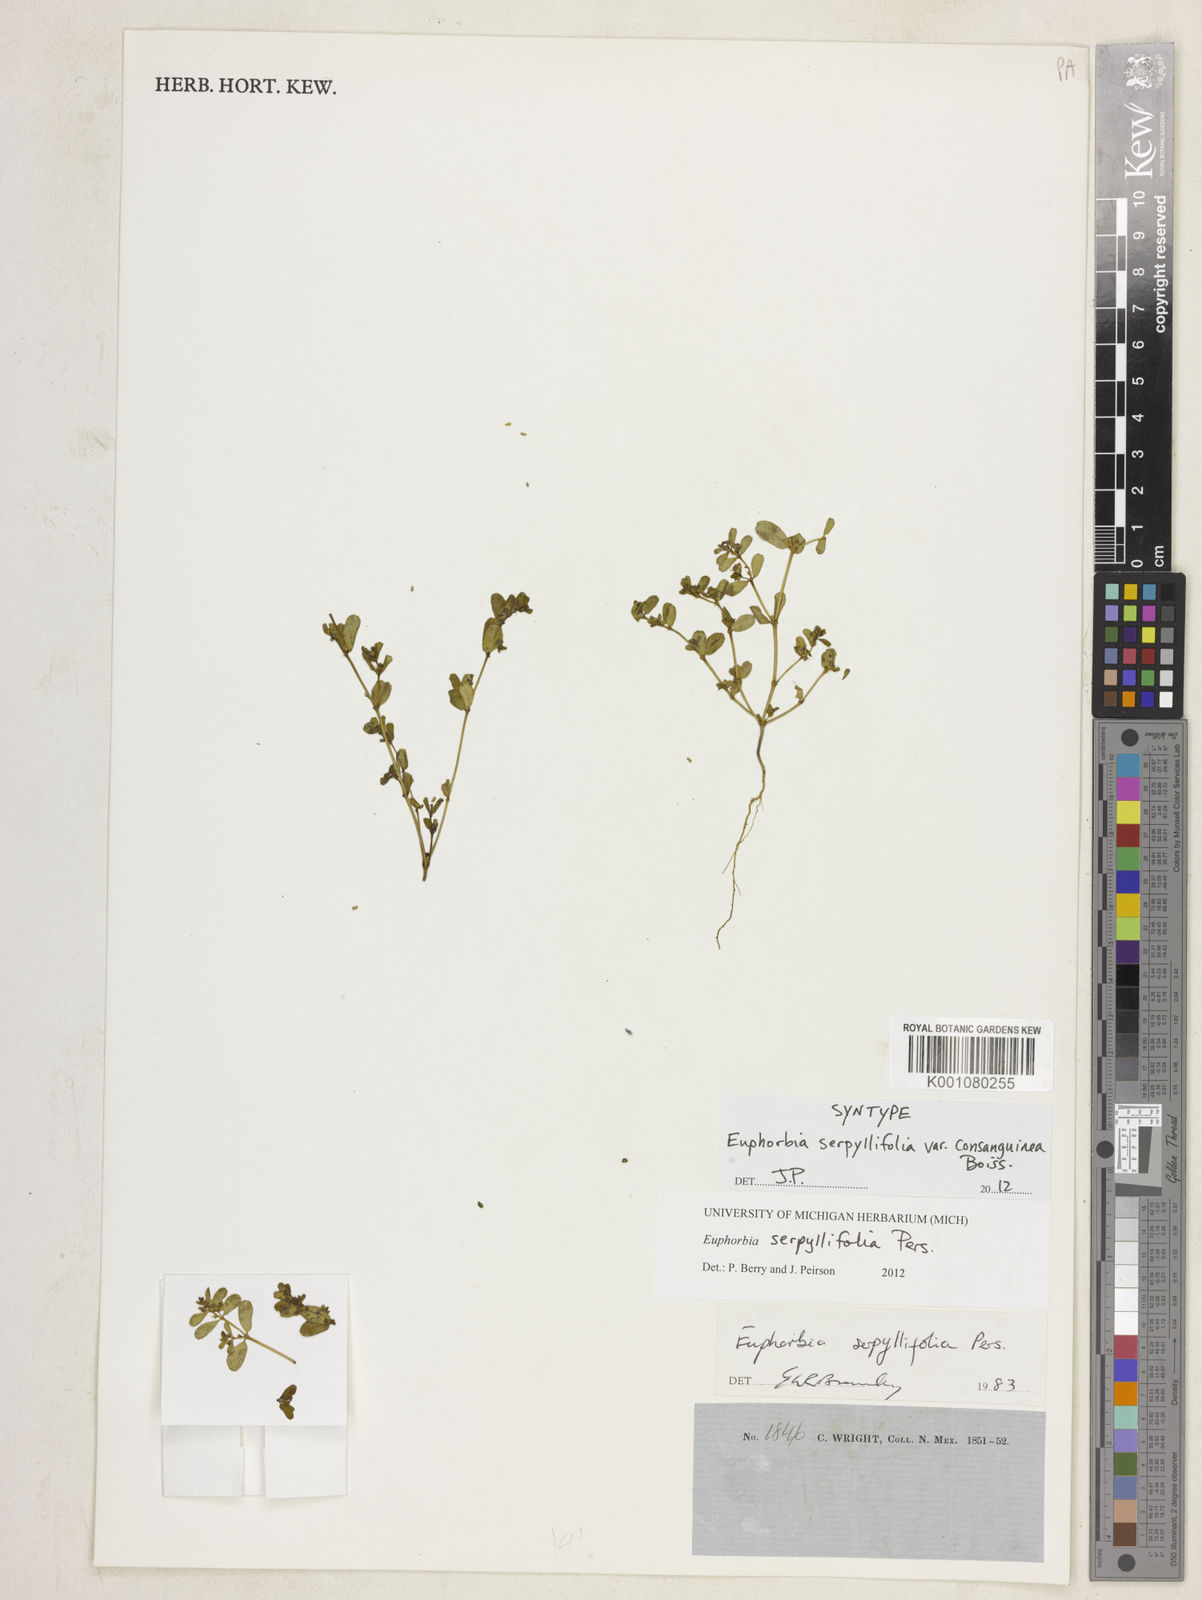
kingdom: Plantae
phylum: Tracheophyta
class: Magnoliopsida
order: Malpighiales
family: Euphorbiaceae
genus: Euphorbia
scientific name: Euphorbia serpillifolia
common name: Thyme-leaf spurge
